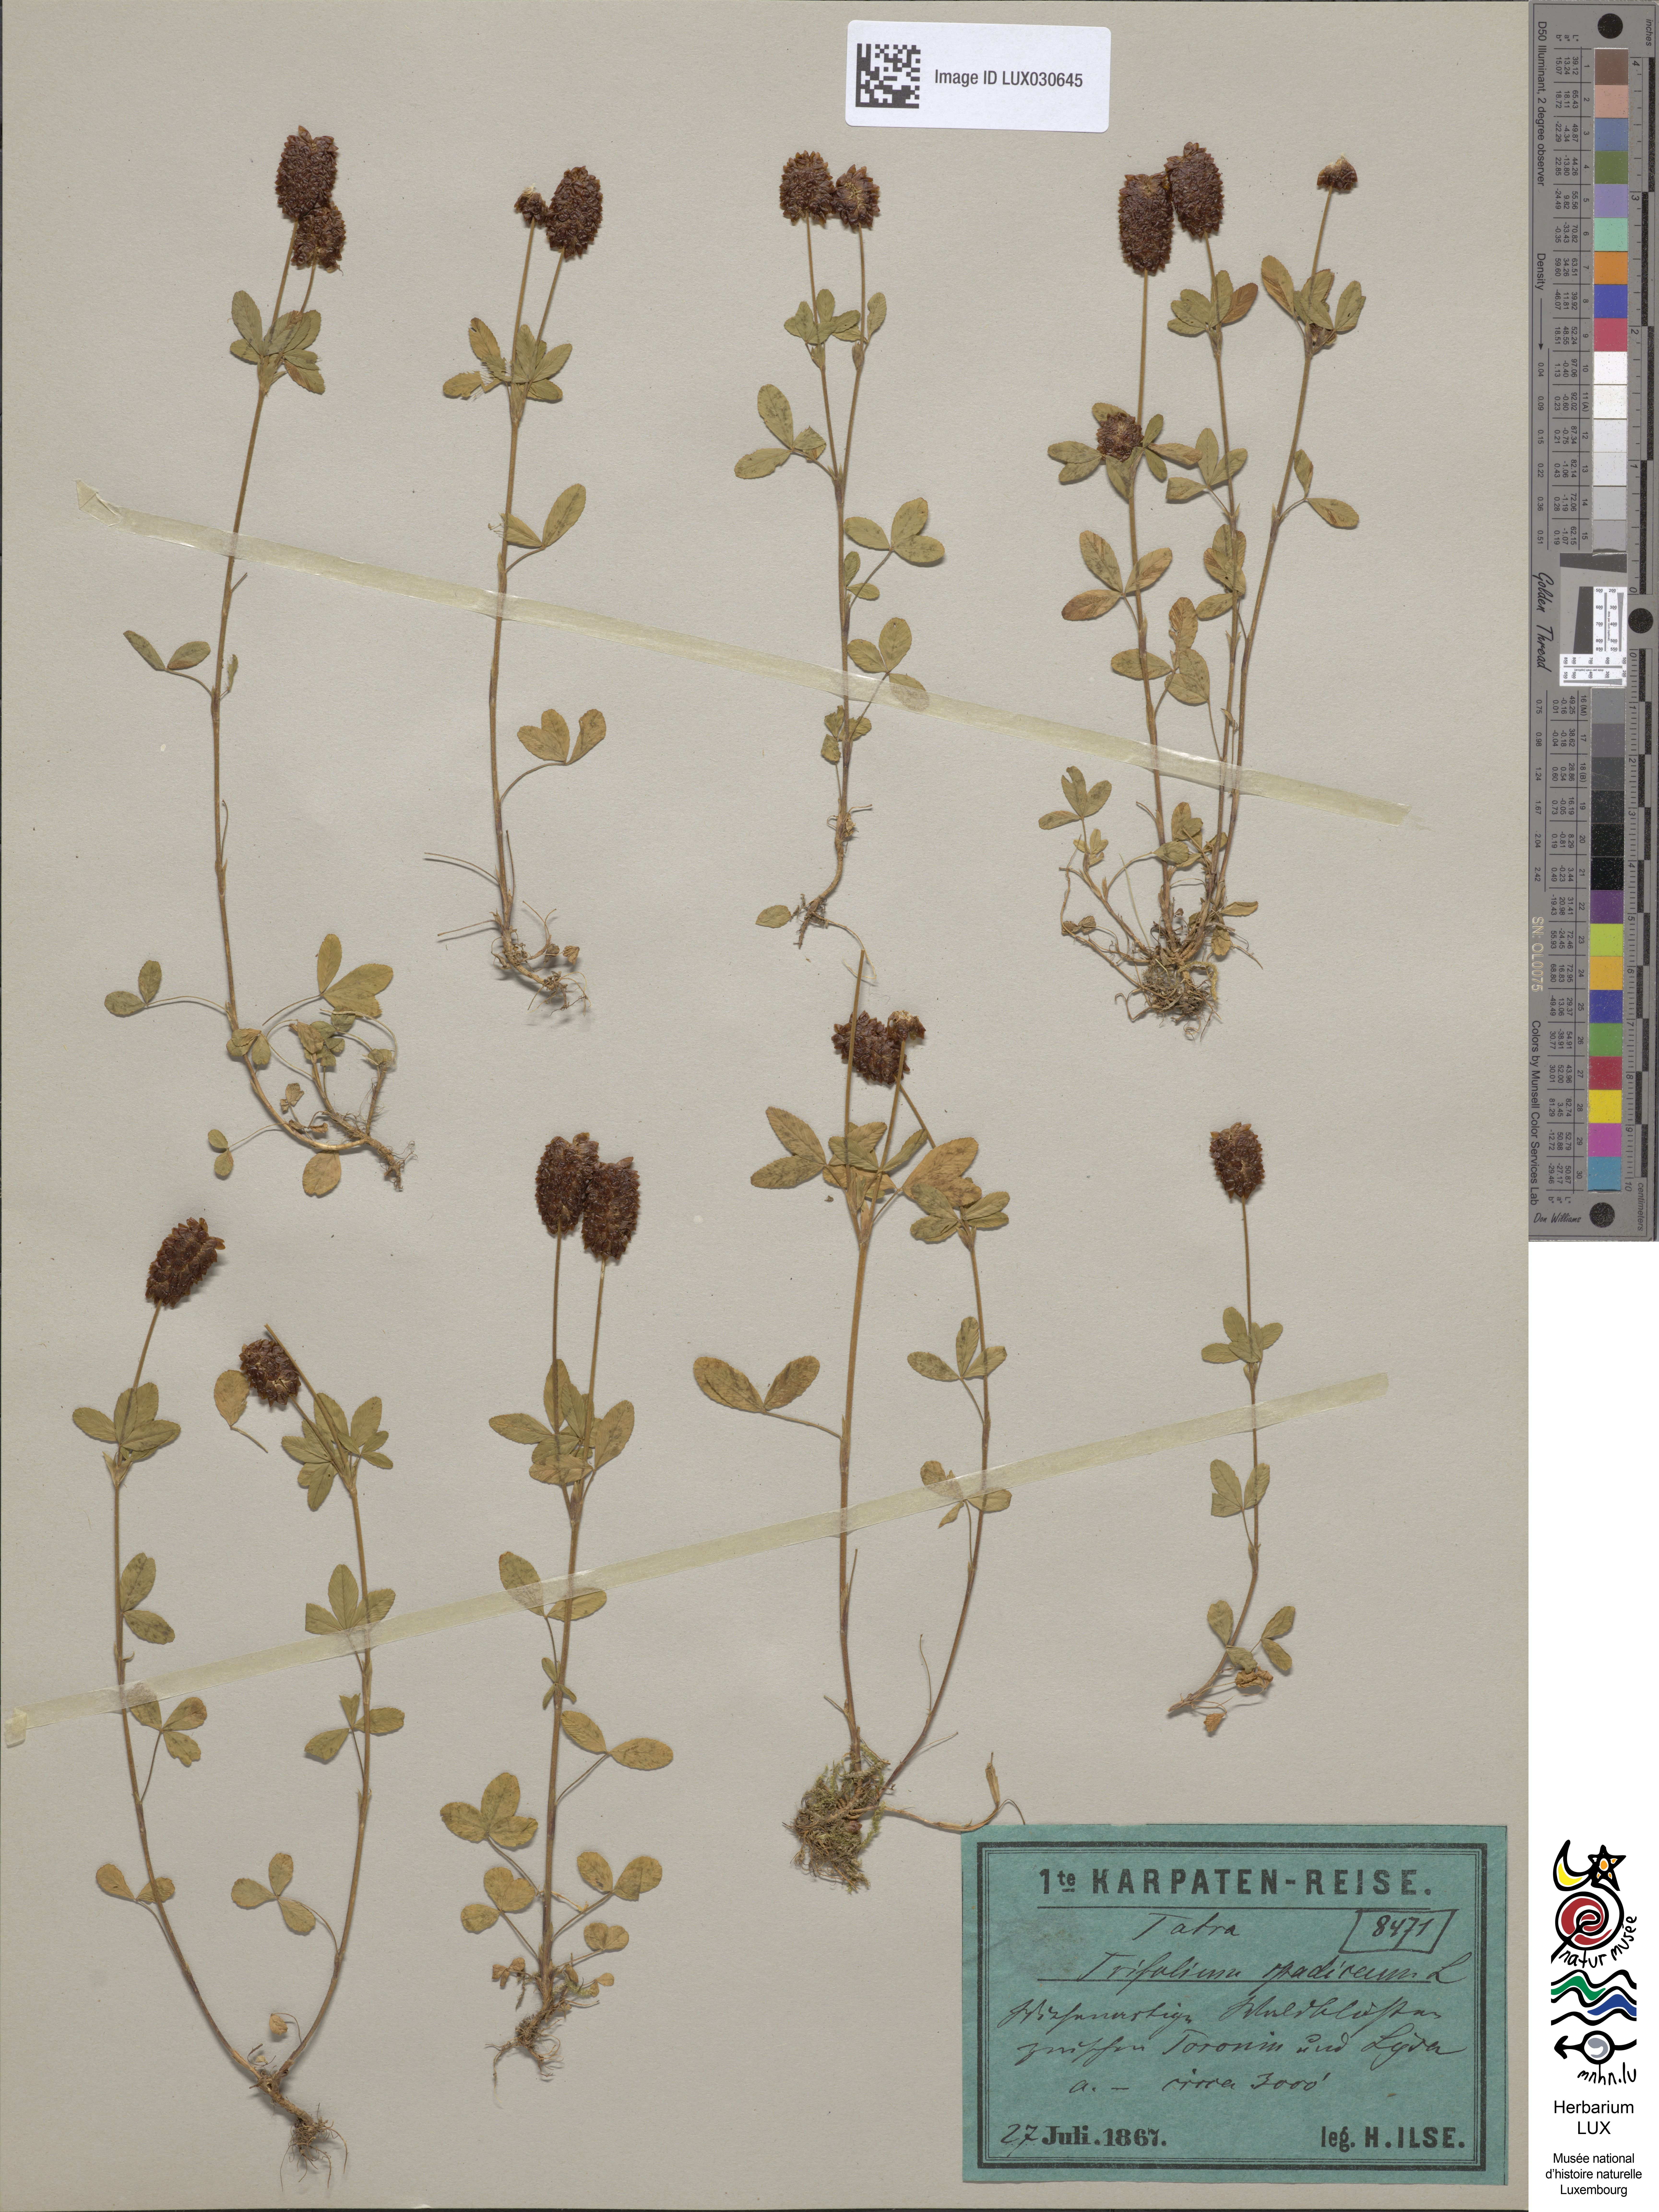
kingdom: Plantae
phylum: Tracheophyta
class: Magnoliopsida
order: Fabales
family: Fabaceae
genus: Trifolium
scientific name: Trifolium spadiceum
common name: Brown moor clover
